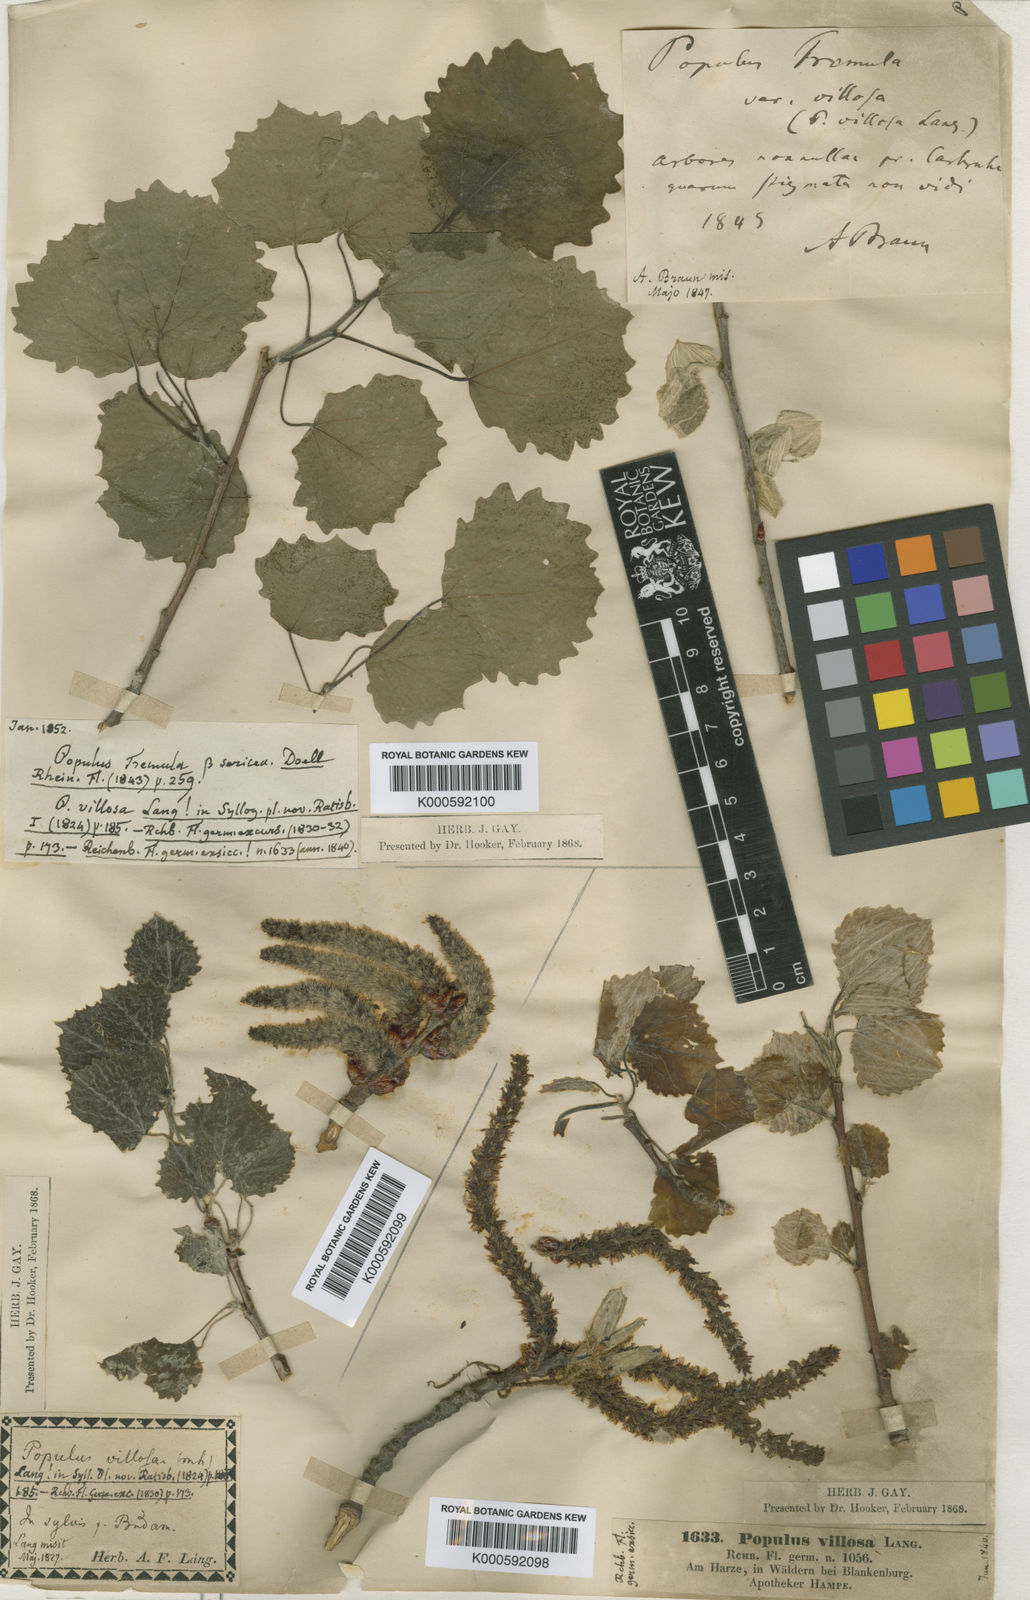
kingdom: Plantae
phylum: Tracheophyta
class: Magnoliopsida
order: Malpighiales
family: Salicaceae
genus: Populus
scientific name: Populus tremula
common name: European aspen
